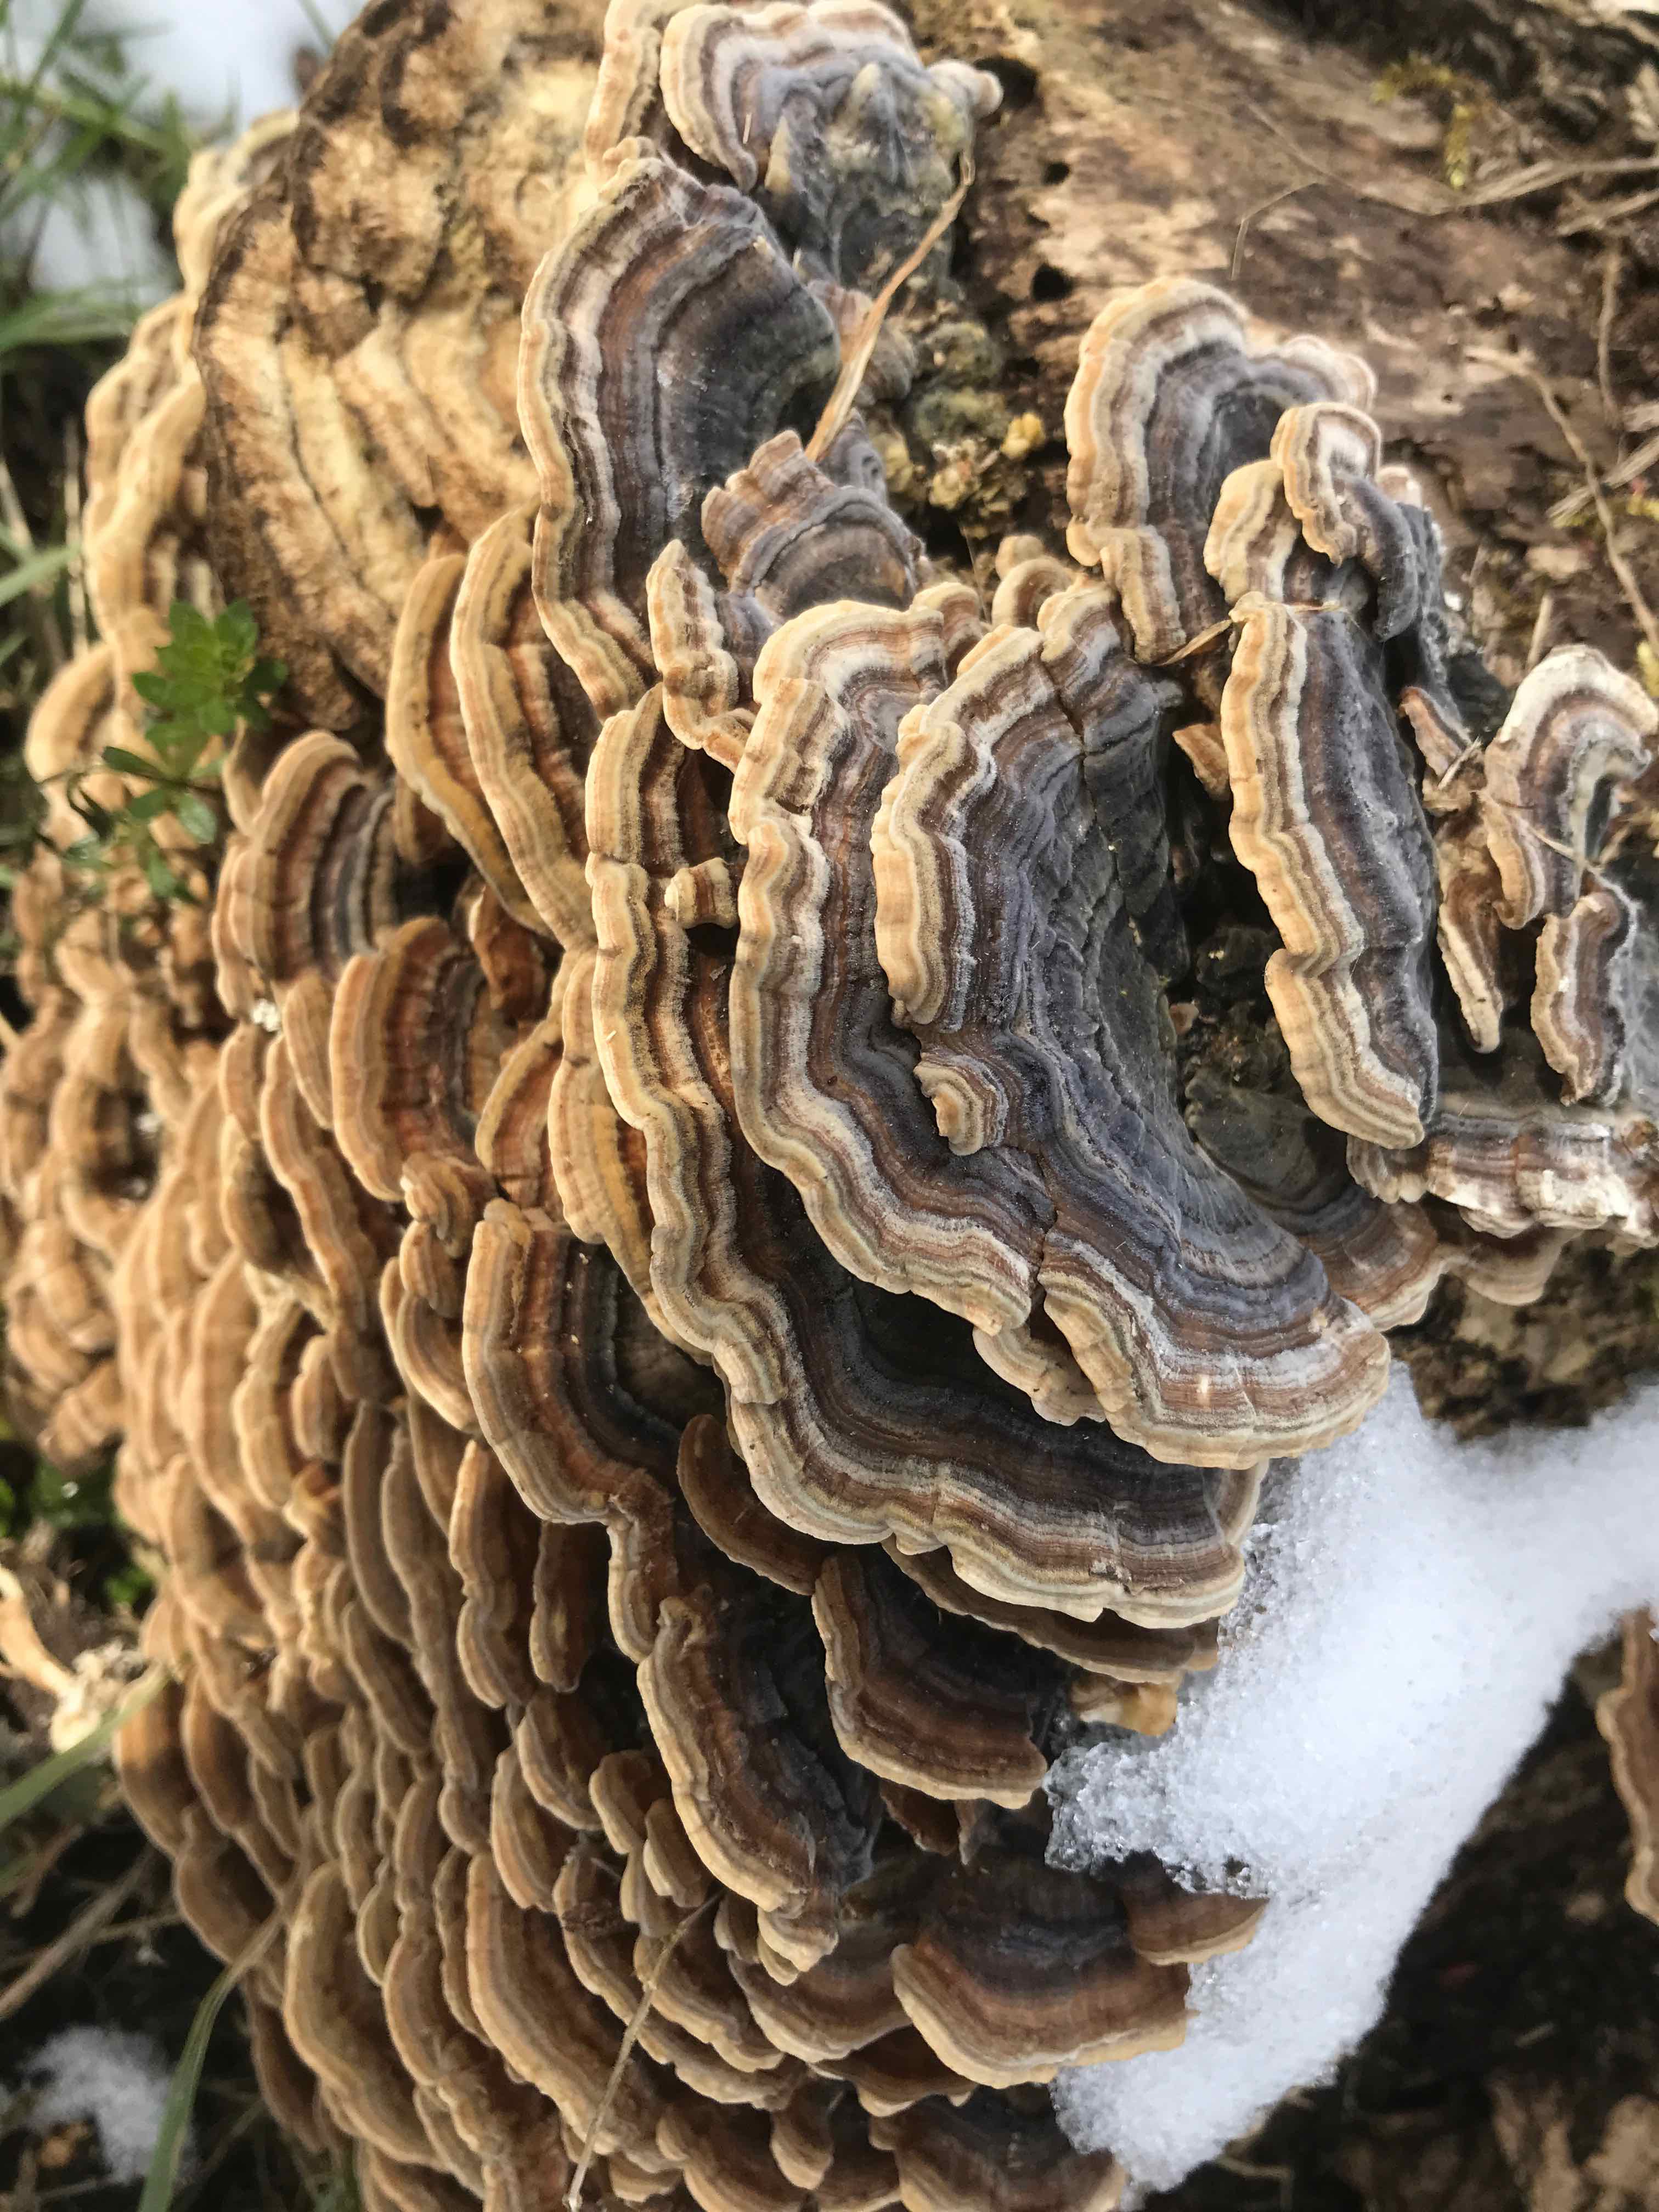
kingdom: Fungi
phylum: Basidiomycota
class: Agaricomycetes
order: Polyporales
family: Polyporaceae
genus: Trametes
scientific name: Trametes versicolor
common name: broget læderporesvamp
